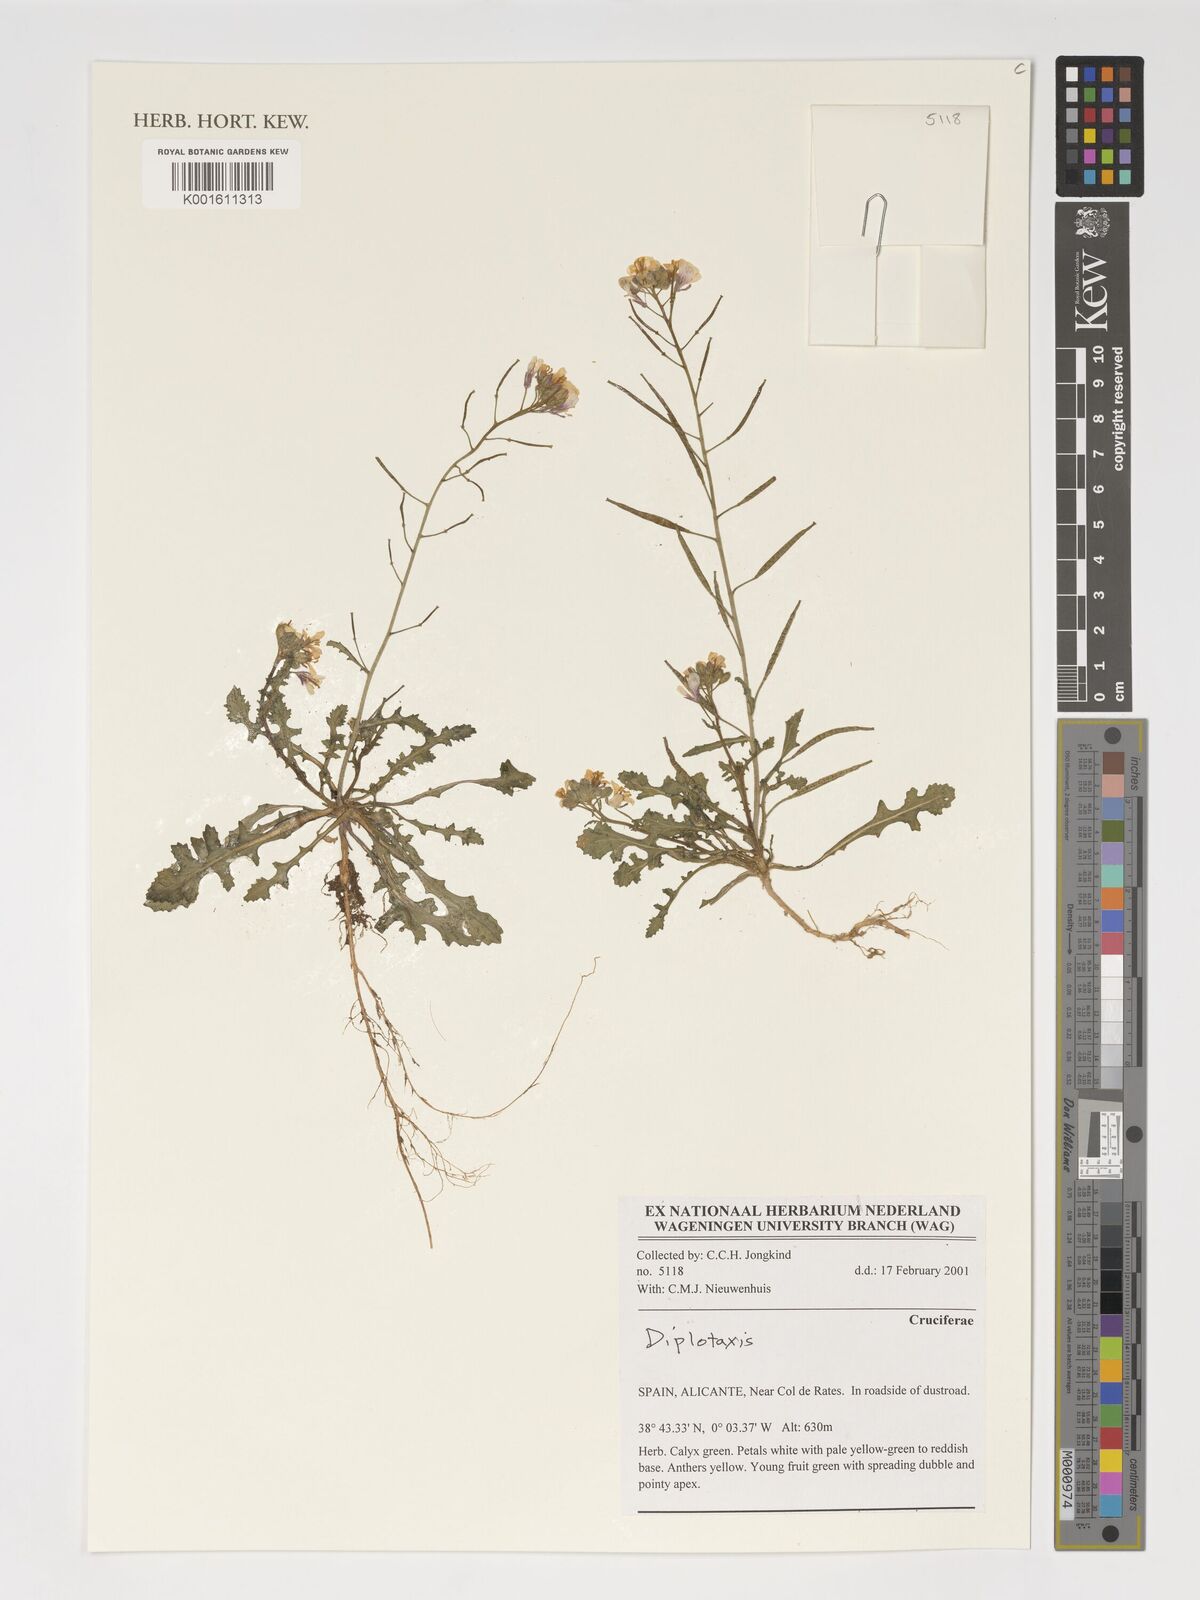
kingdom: Plantae
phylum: Tracheophyta
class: Magnoliopsida
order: Brassicales
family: Brassicaceae
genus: Diplotaxis
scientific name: Diplotaxis
